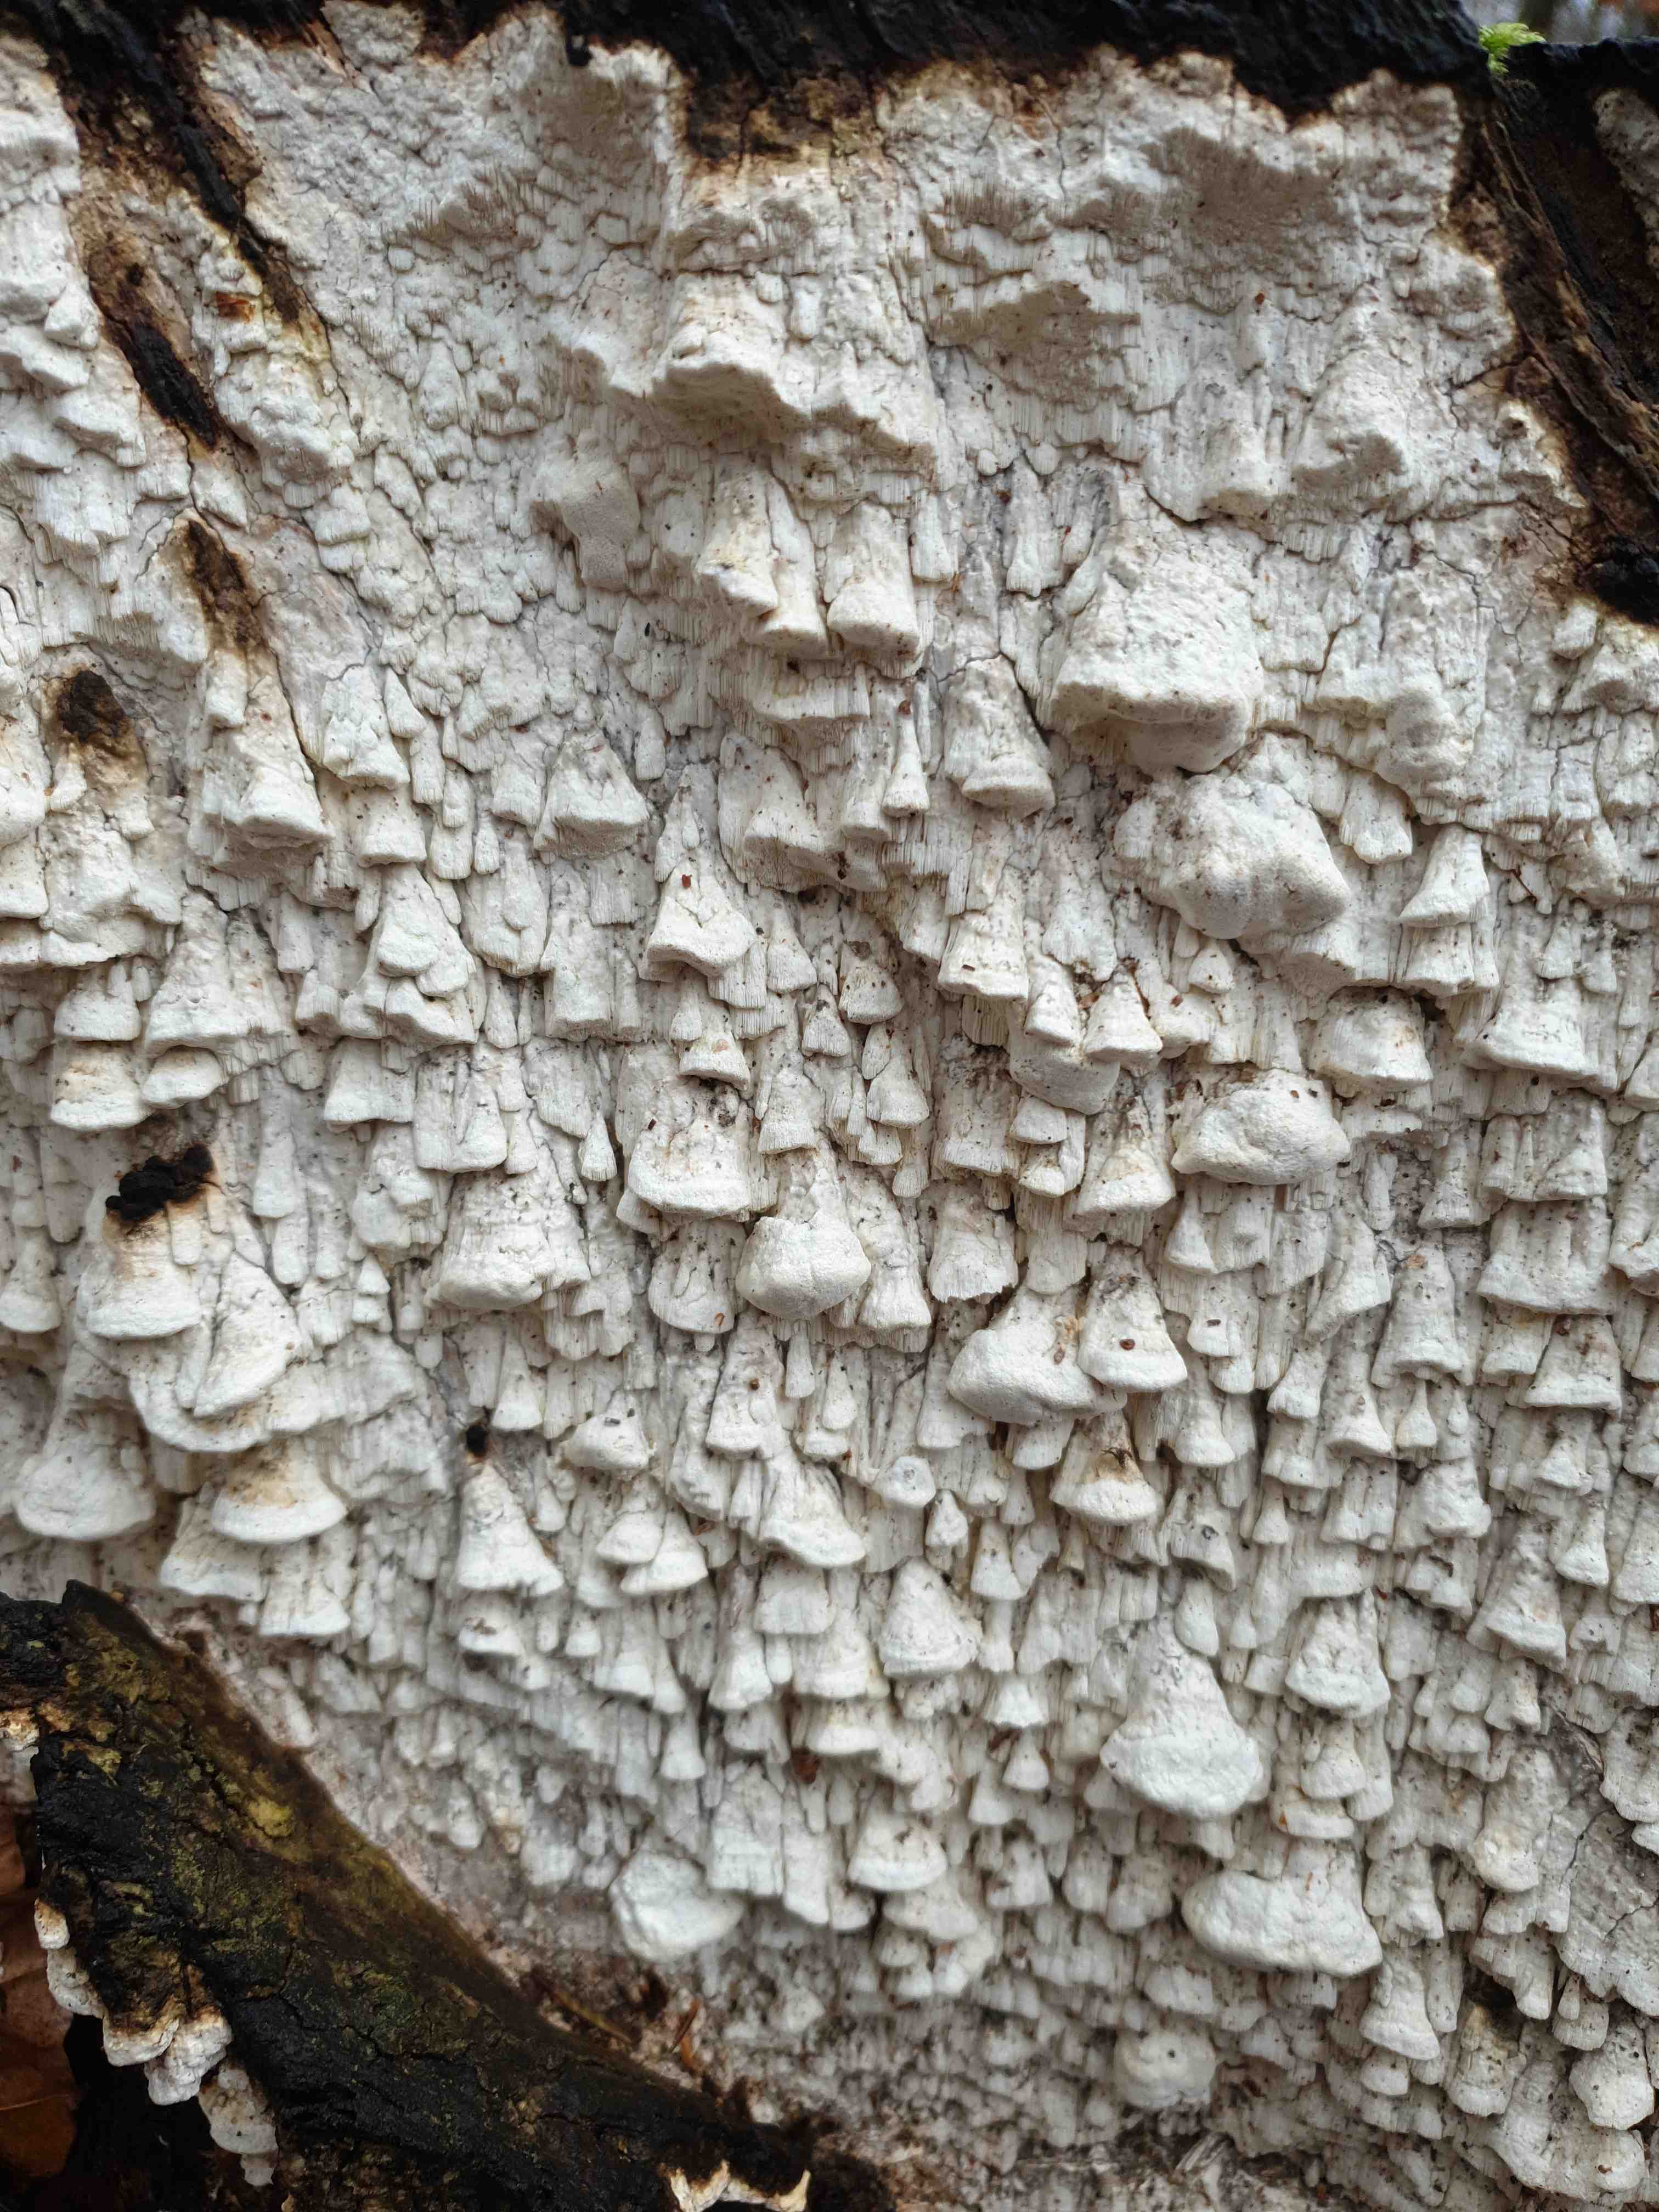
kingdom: Fungi
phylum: Basidiomycota
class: Agaricomycetes
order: Polyporales
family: Fomitopsidaceae
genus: Daedalea
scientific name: Daedalea xantha
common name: gul sejporesvamp
